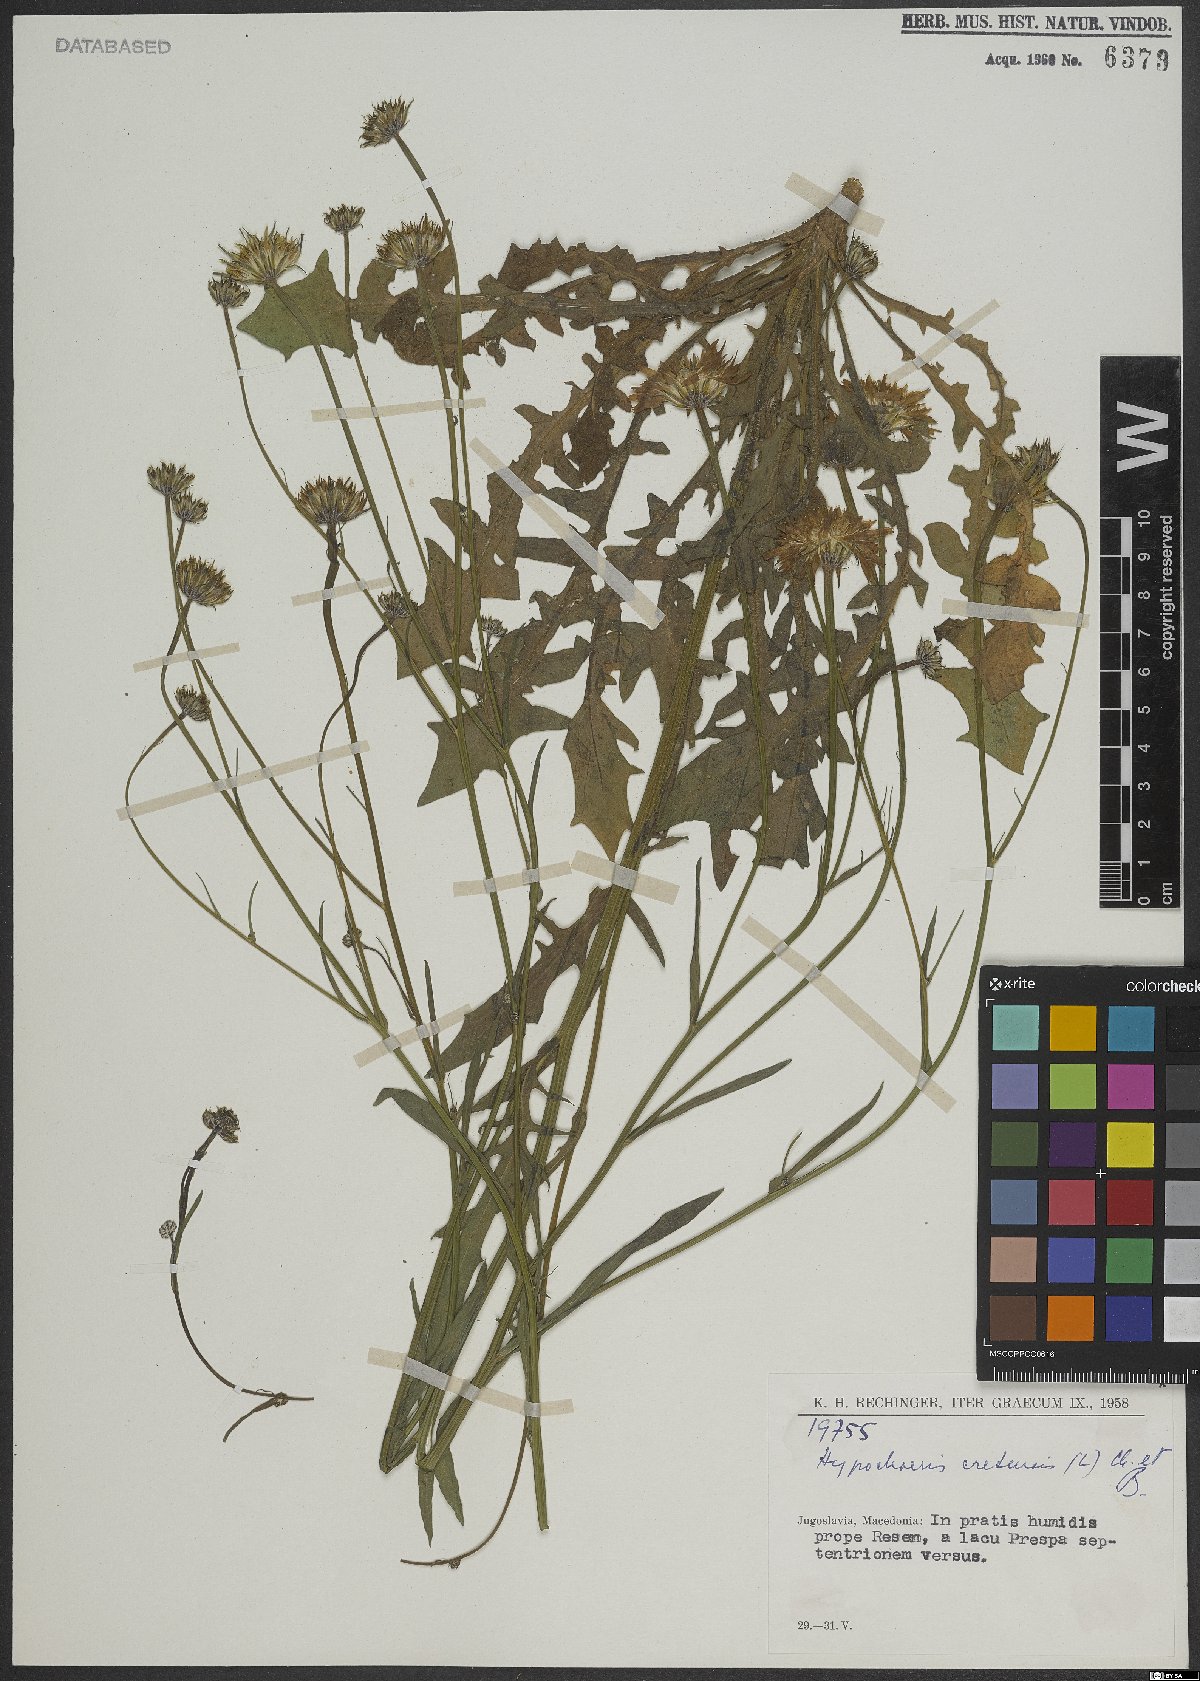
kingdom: Plantae
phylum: Tracheophyta
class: Magnoliopsida
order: Asterales
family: Asteraceae
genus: Hypochaeris
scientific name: Hypochaeris cretensis
